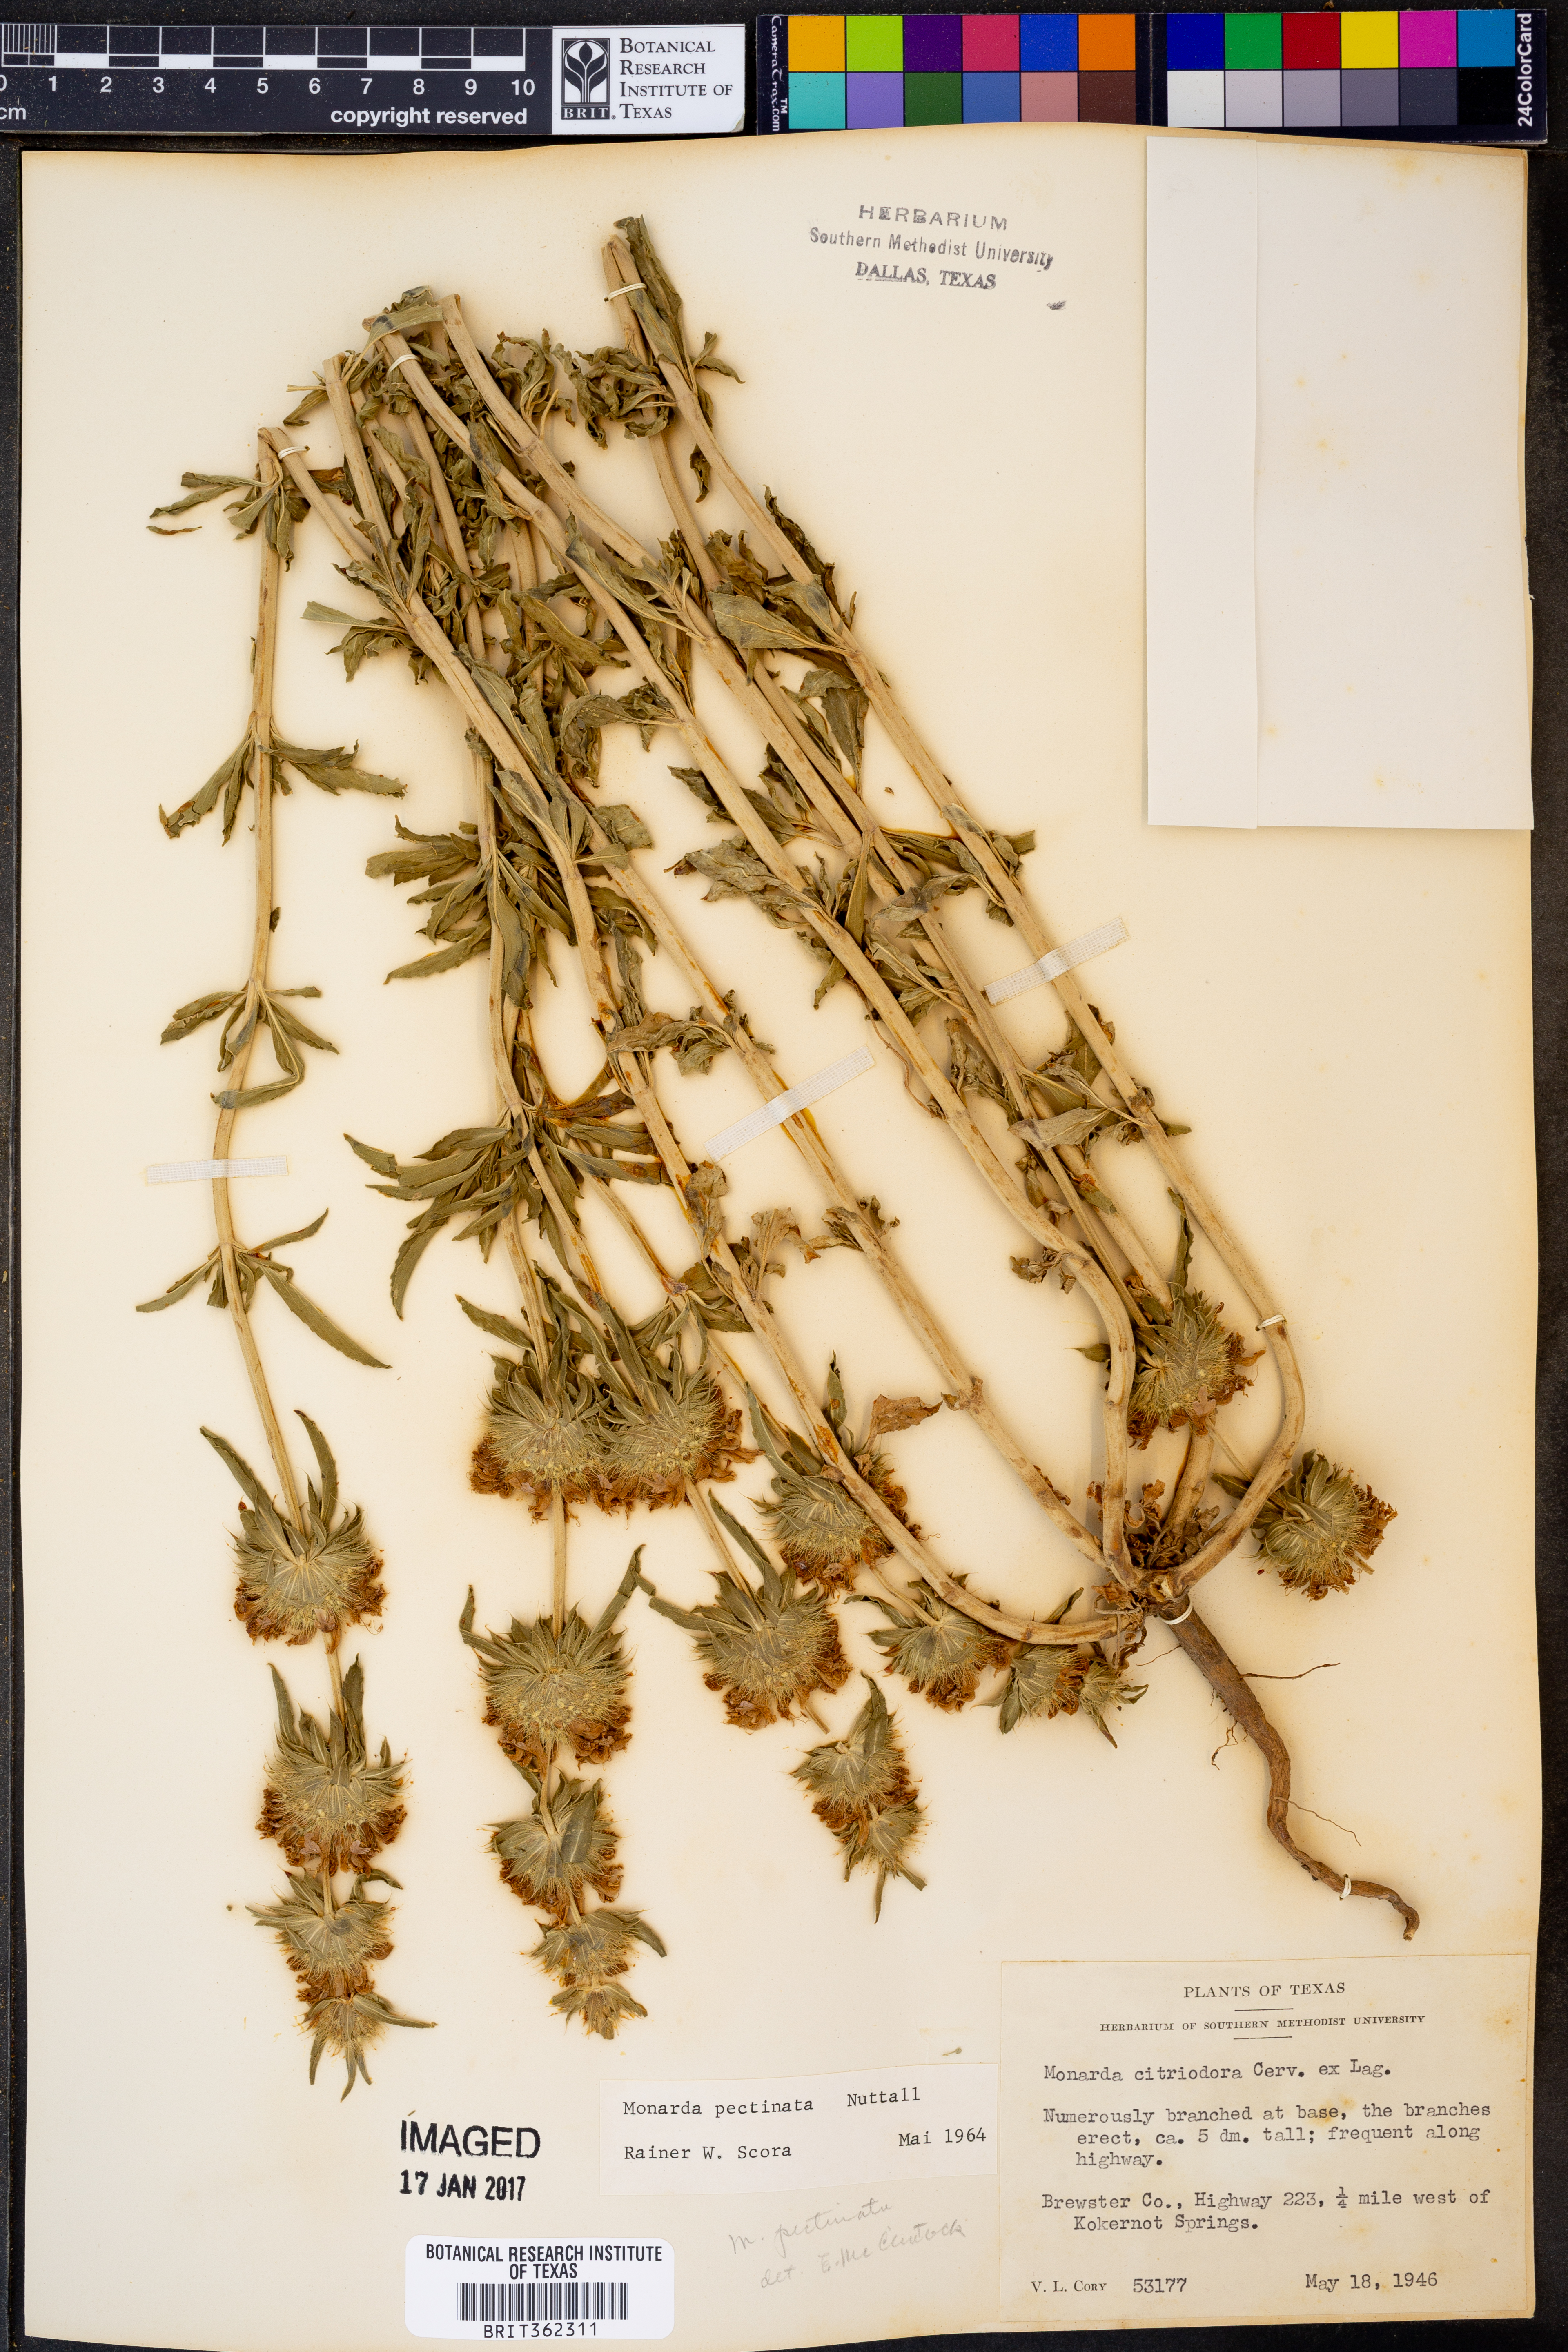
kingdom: Plantae
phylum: Tracheophyta
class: Magnoliopsida
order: Lamiales
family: Lamiaceae
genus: Monarda
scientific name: Monarda pectinata
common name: Plains beebalm
